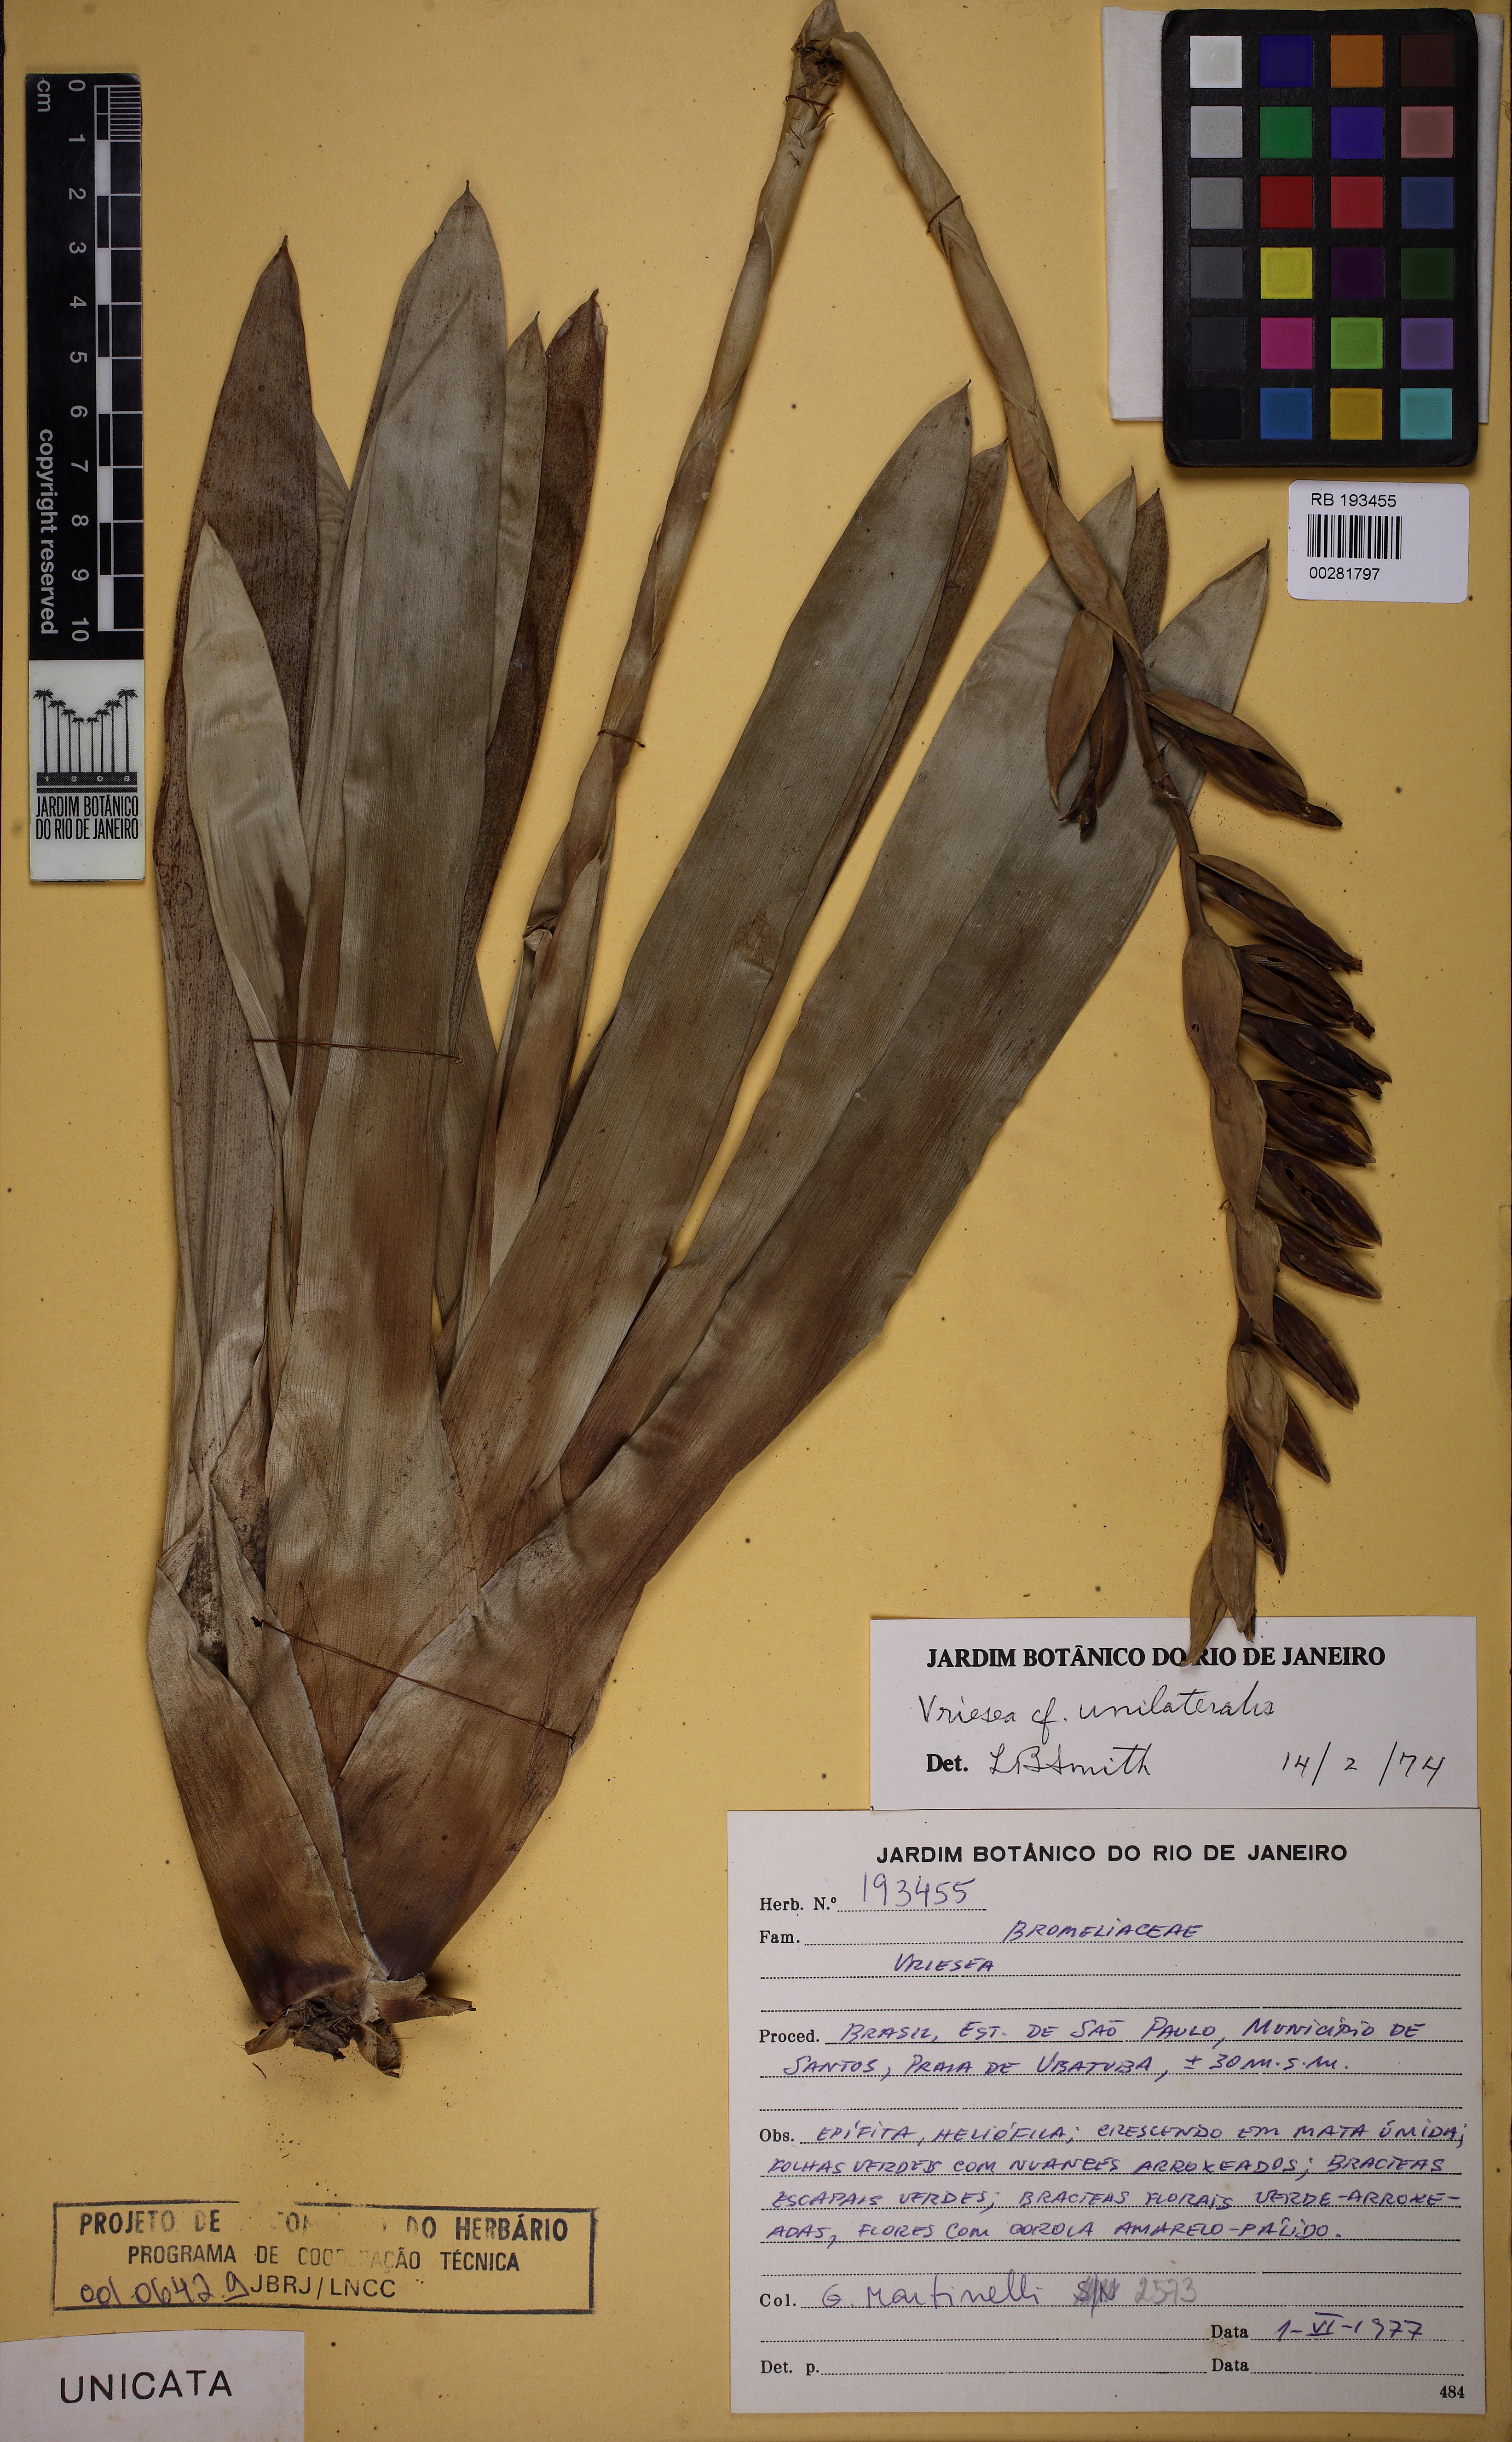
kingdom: Plantae
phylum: Tracheophyta
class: Liliopsida
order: Poales
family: Bromeliaceae
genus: Vriesea
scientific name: Vriesea unilateralis
